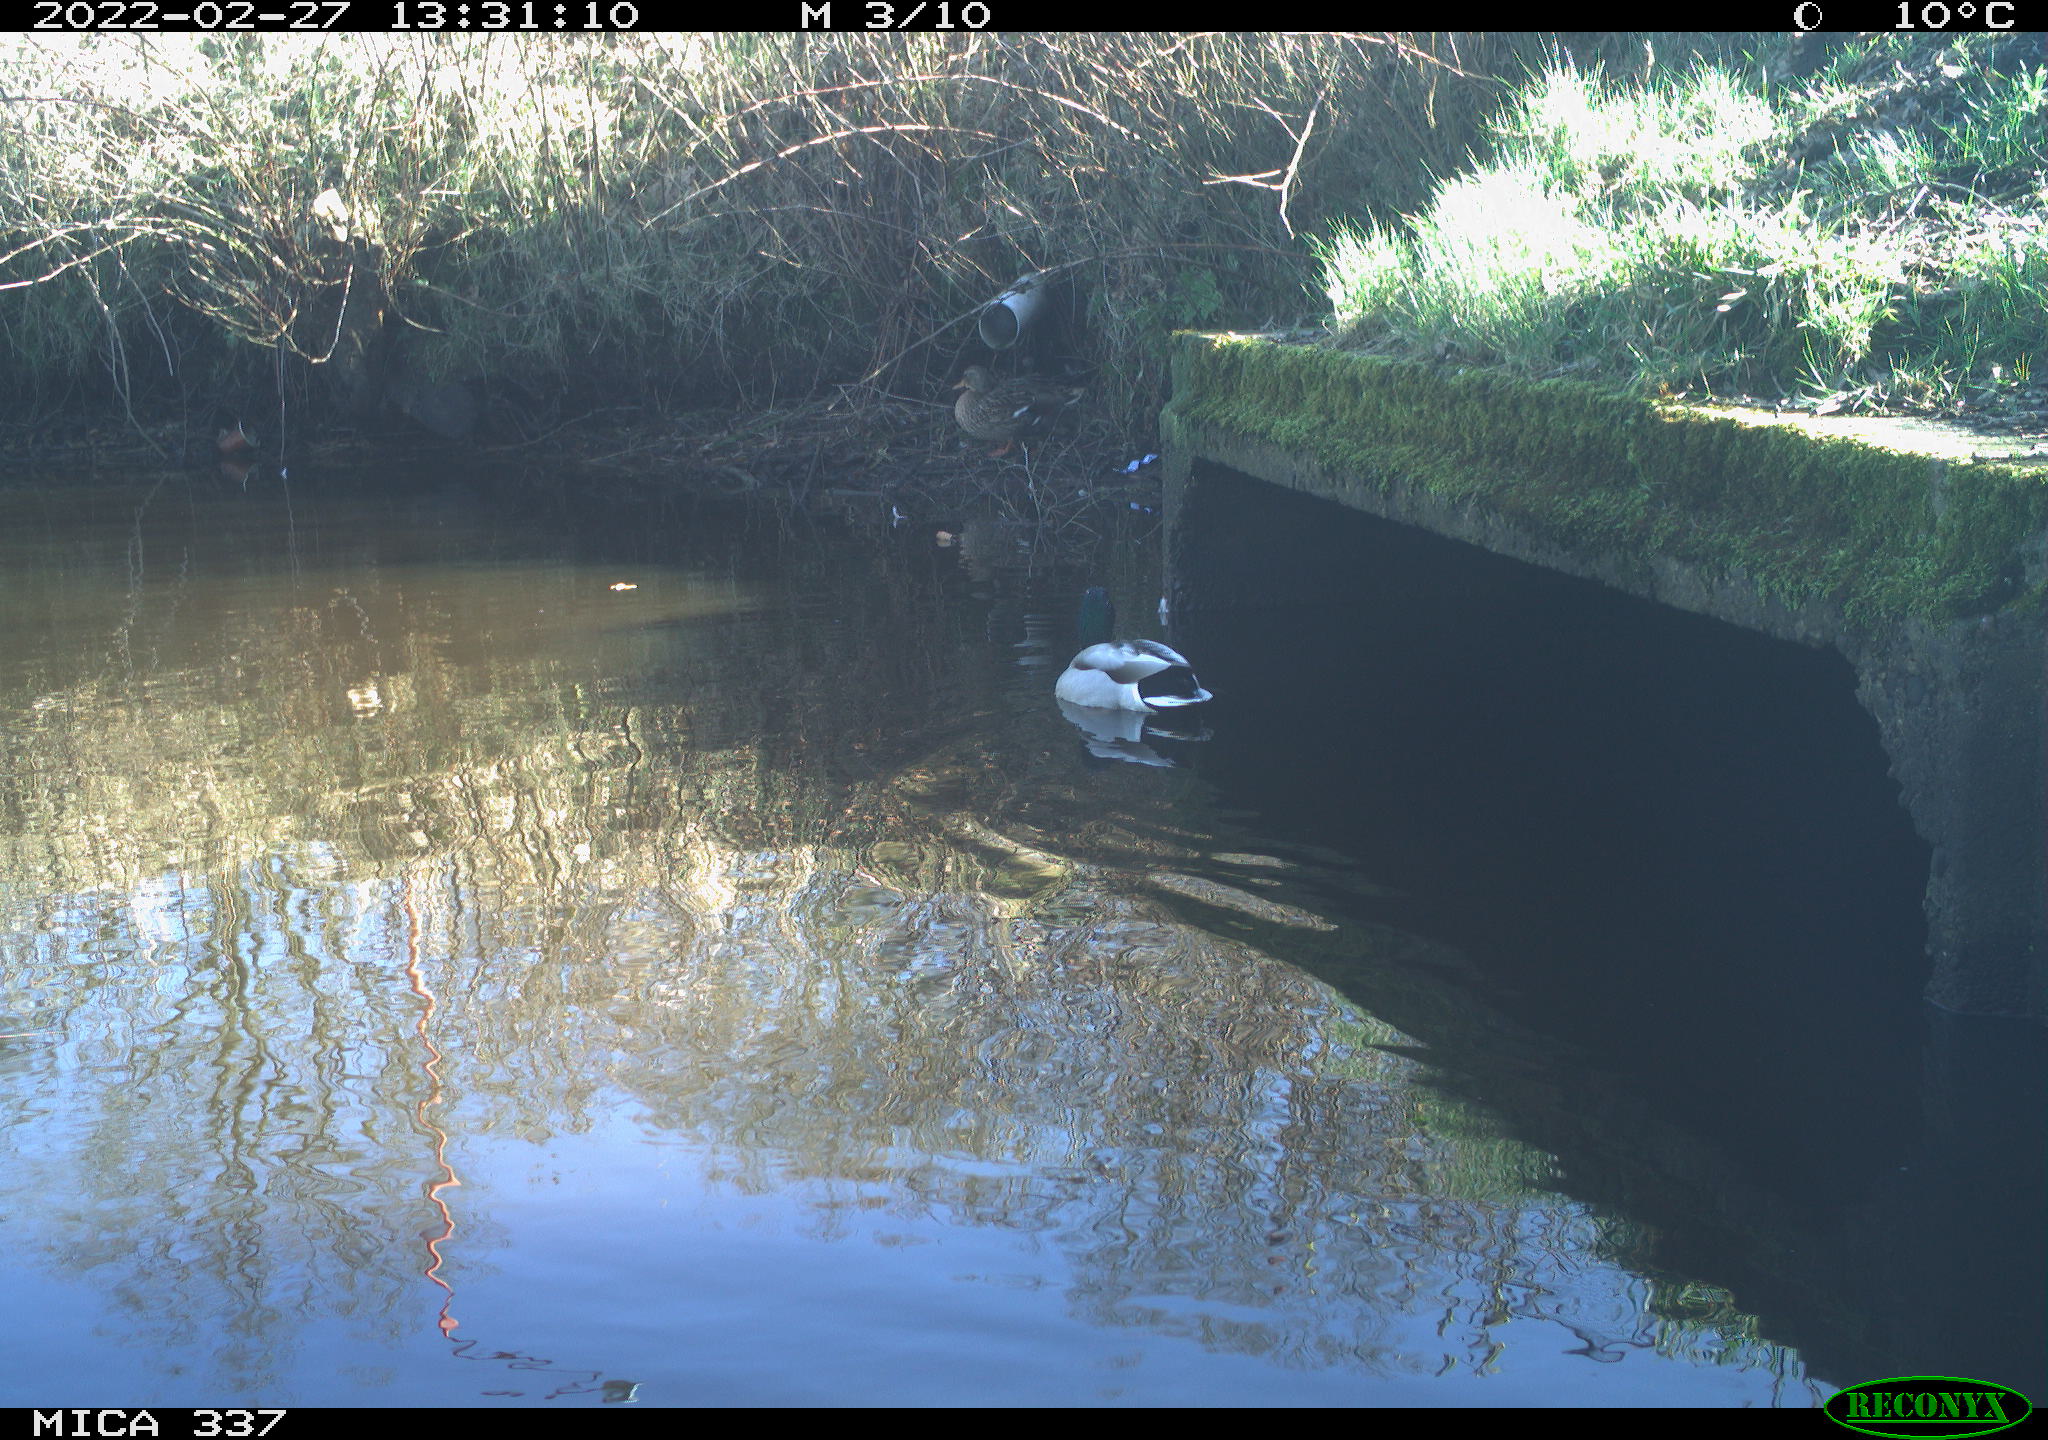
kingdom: Animalia
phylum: Chordata
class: Aves
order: Anseriformes
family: Anatidae
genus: Anas
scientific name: Anas platyrhynchos
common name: Mallard
